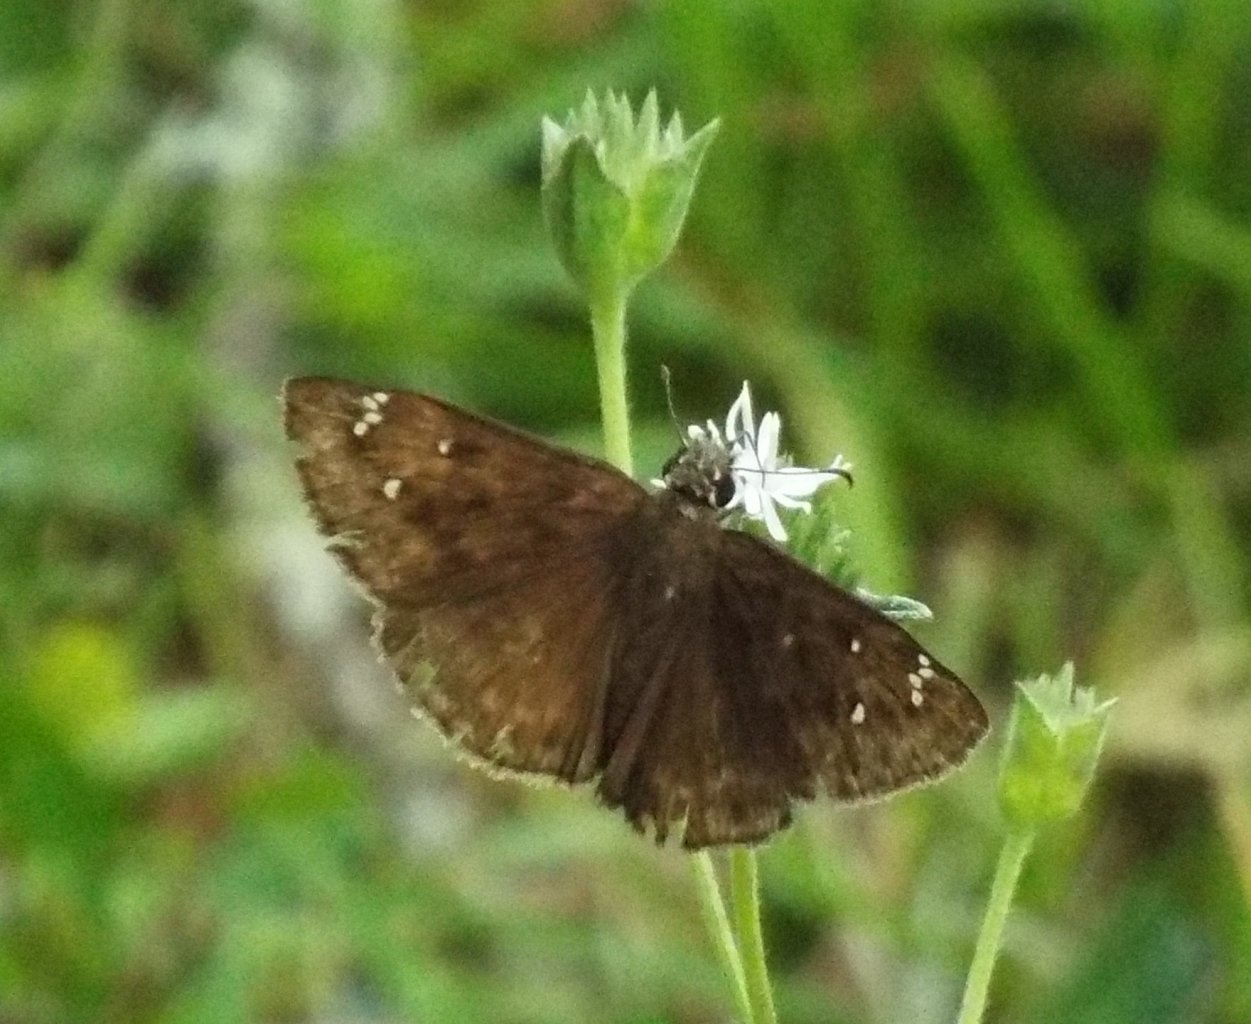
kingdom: Animalia
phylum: Arthropoda
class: Insecta
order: Lepidoptera
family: Hesperiidae
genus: Gesta
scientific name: Gesta
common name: Horace's Duskywing
